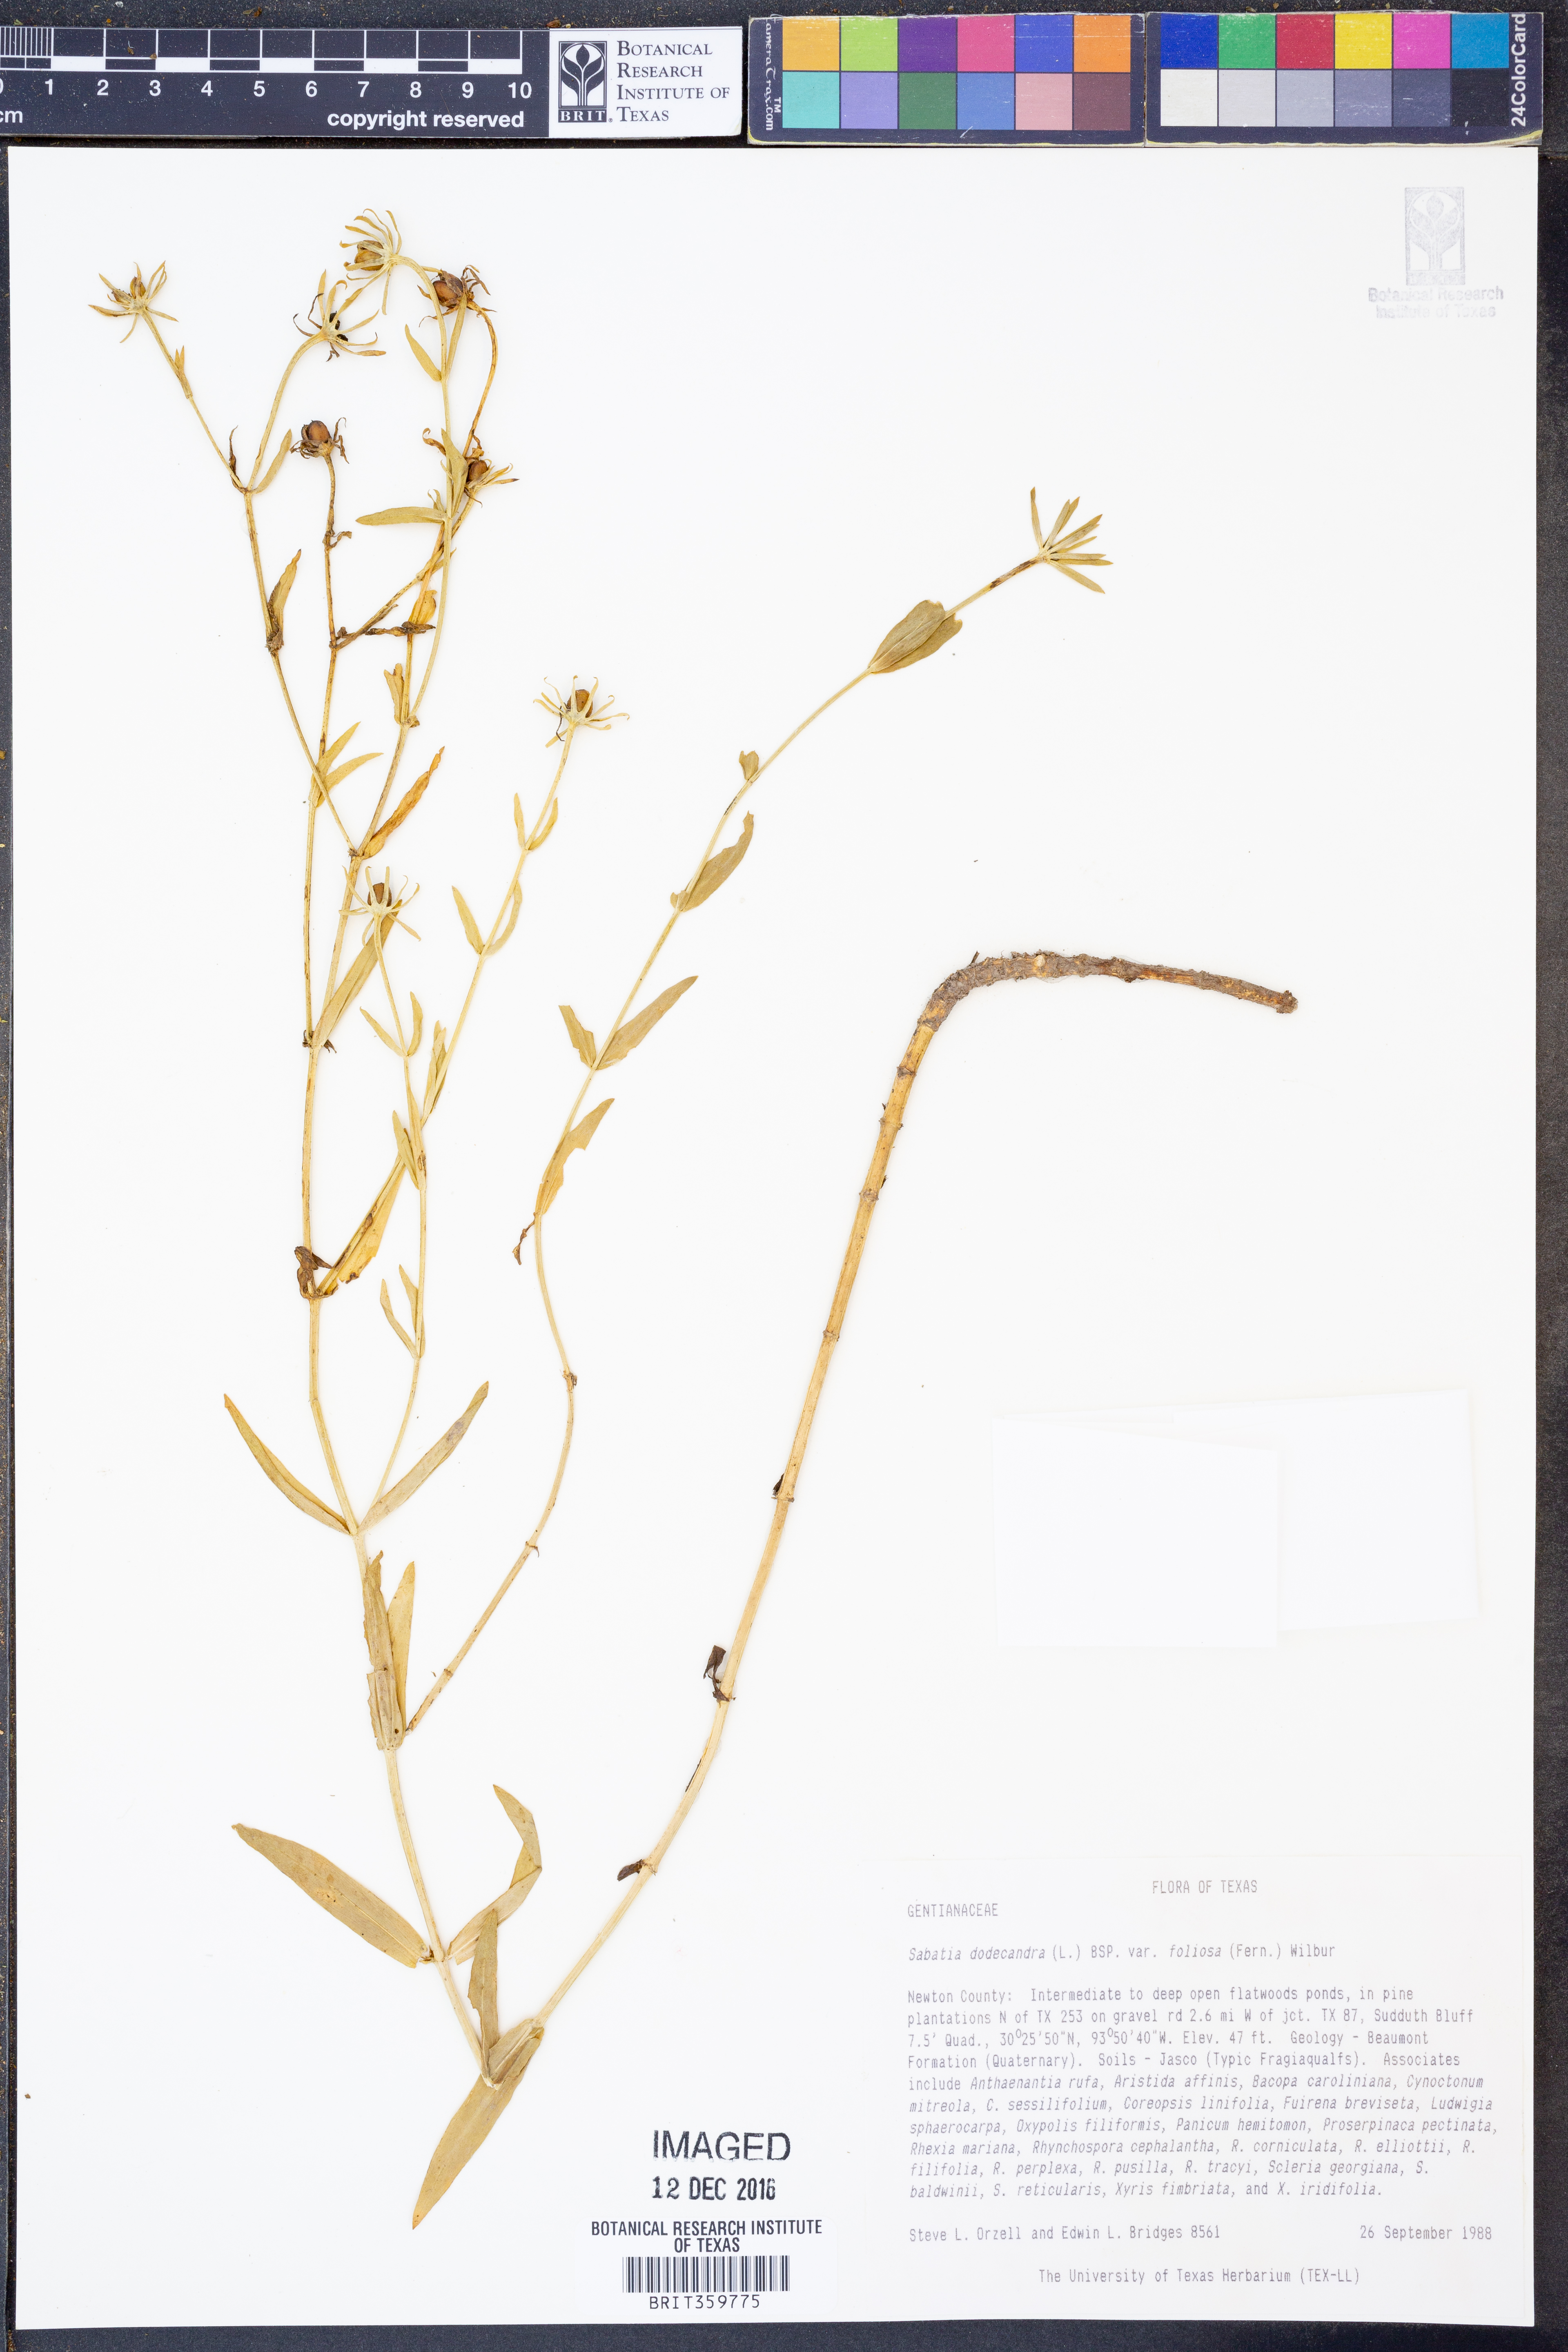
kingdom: Plantae
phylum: Tracheophyta
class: Magnoliopsida
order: Gentianales
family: Gentianaceae
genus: Sabatia
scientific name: Sabatia foliosa
